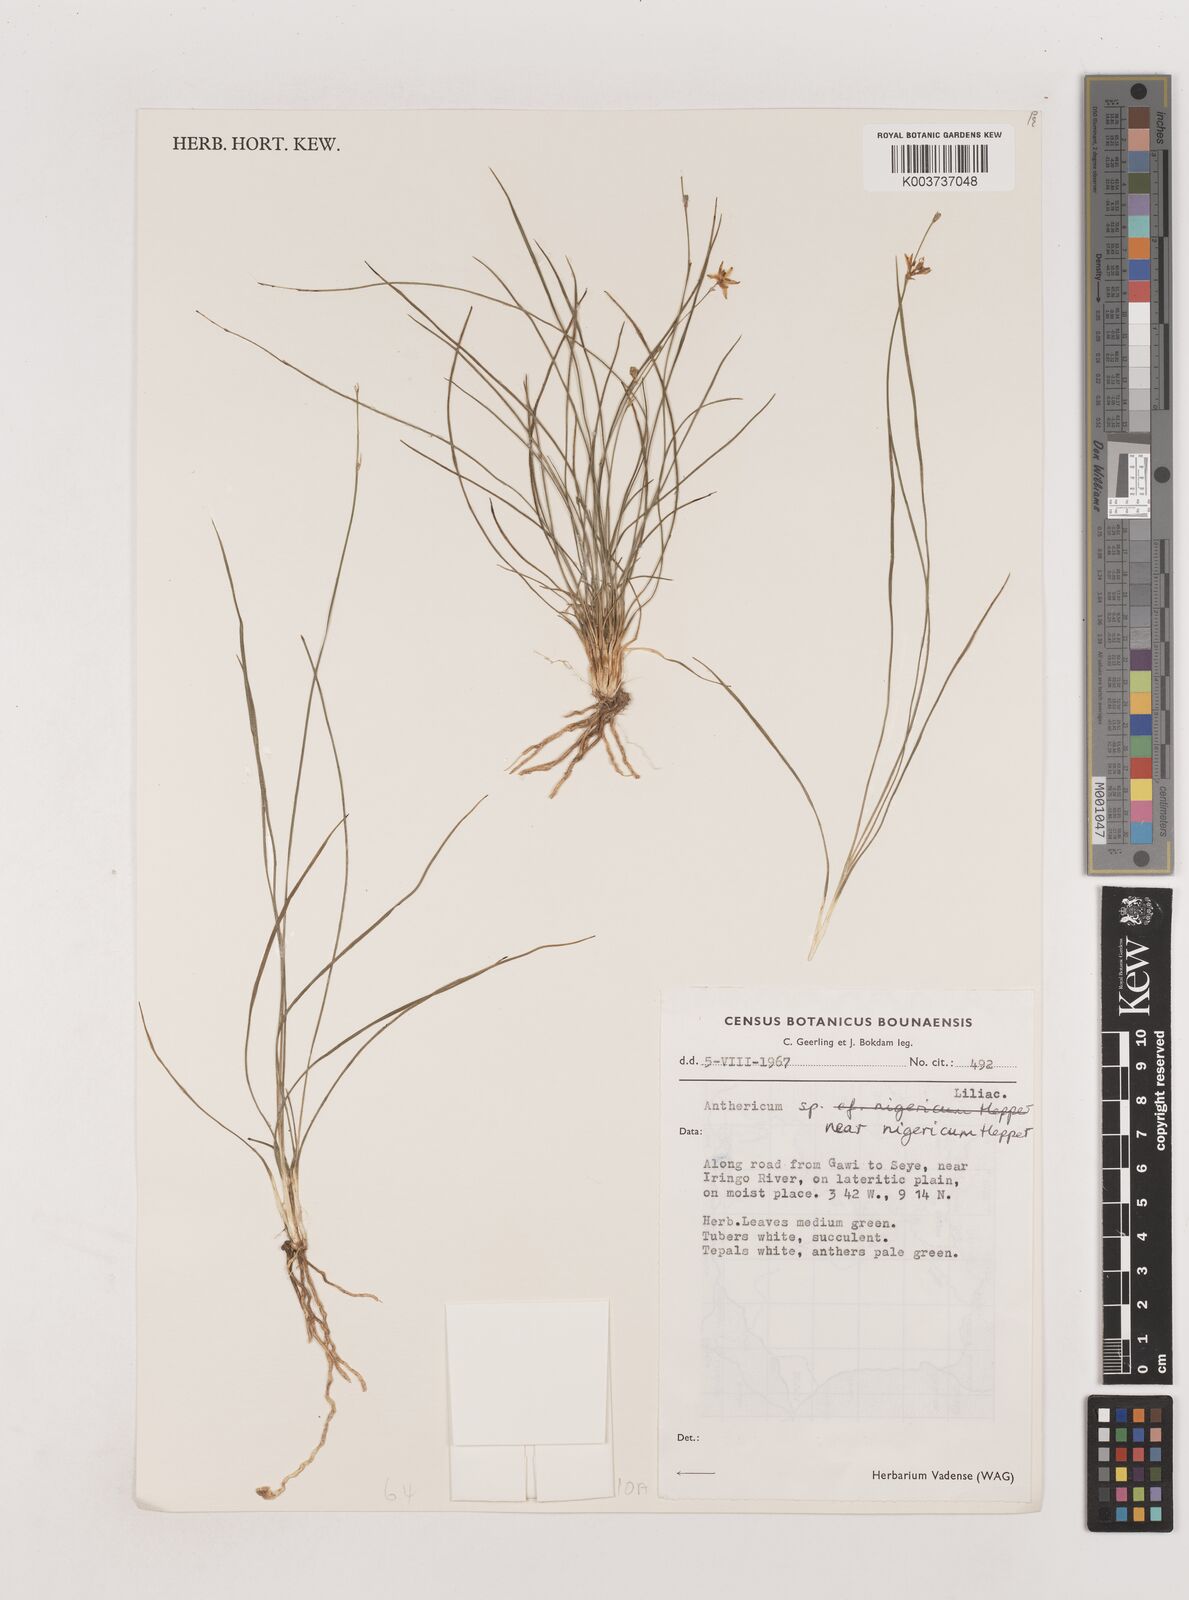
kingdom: Plantae
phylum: Tracheophyta
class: Liliopsida
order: Asparagales
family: Asparagaceae
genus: Chlorophytum
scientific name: Chlorophytum angustissimum
